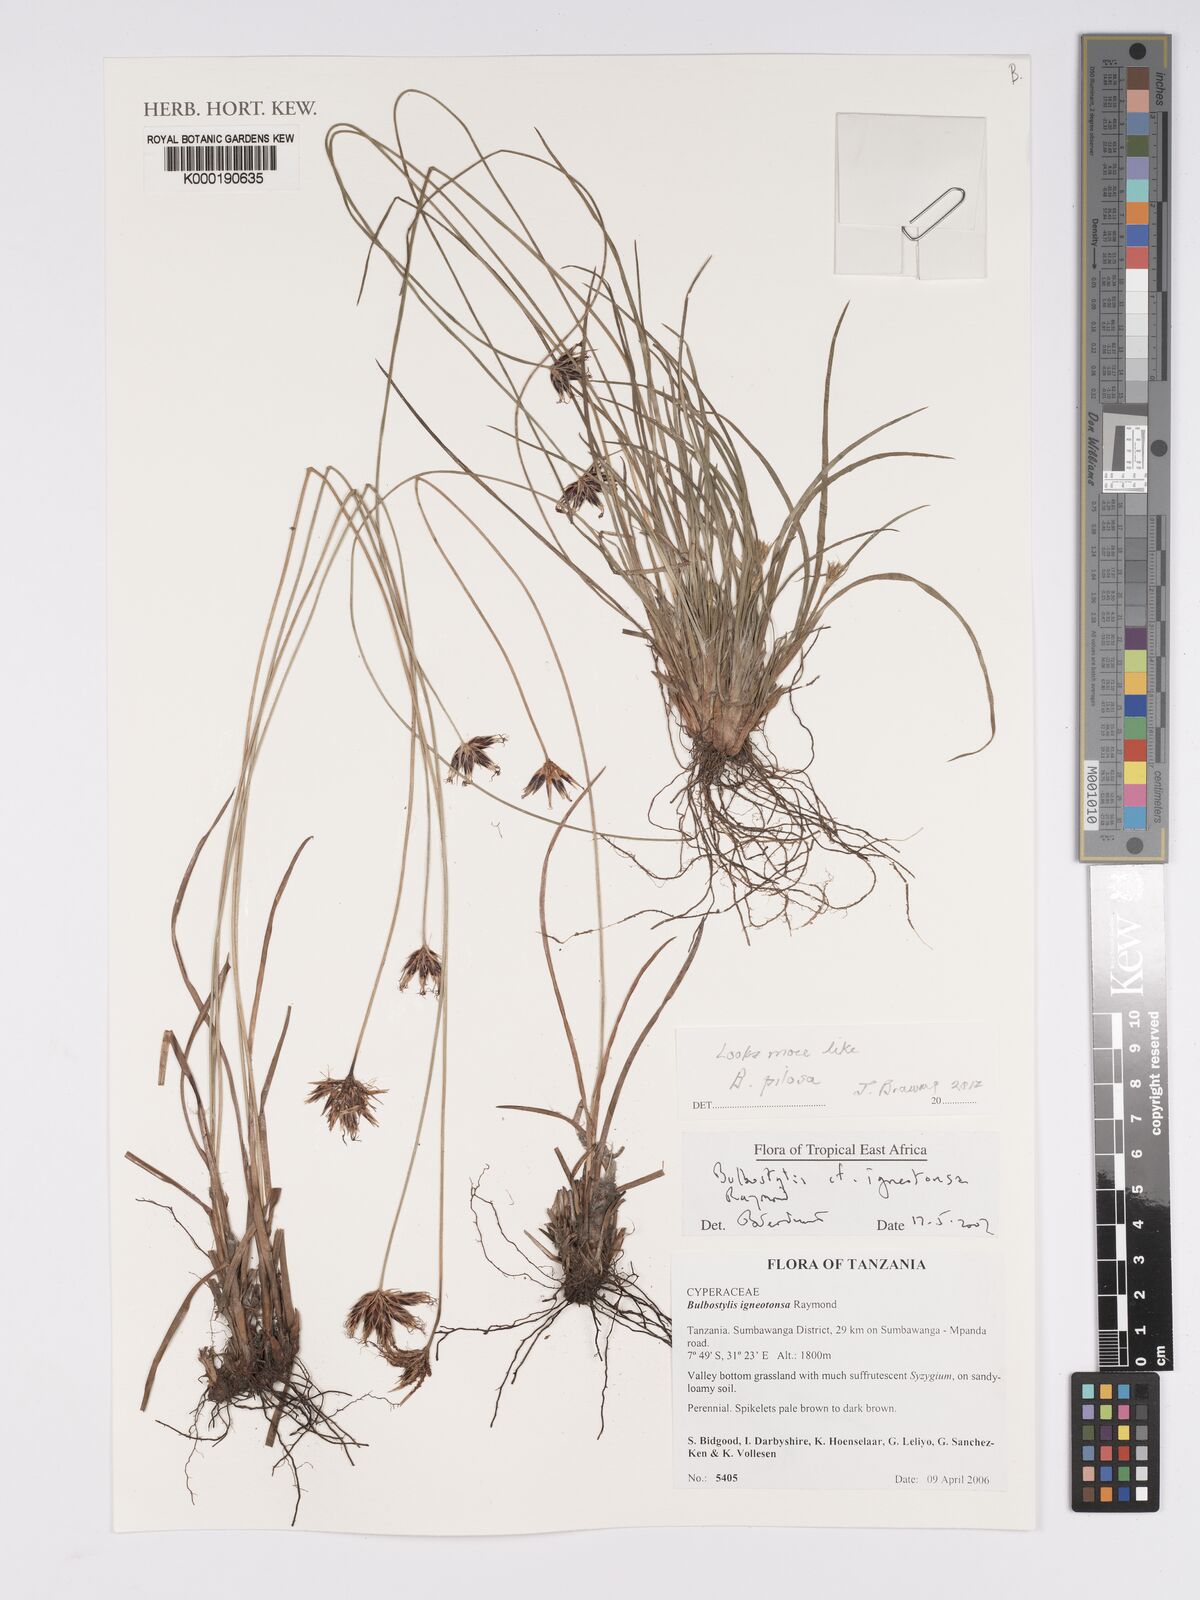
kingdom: Plantae
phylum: Tracheophyta
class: Liliopsida
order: Poales
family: Cyperaceae
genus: Bulbostylis
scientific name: Bulbostylis igneotonsa
